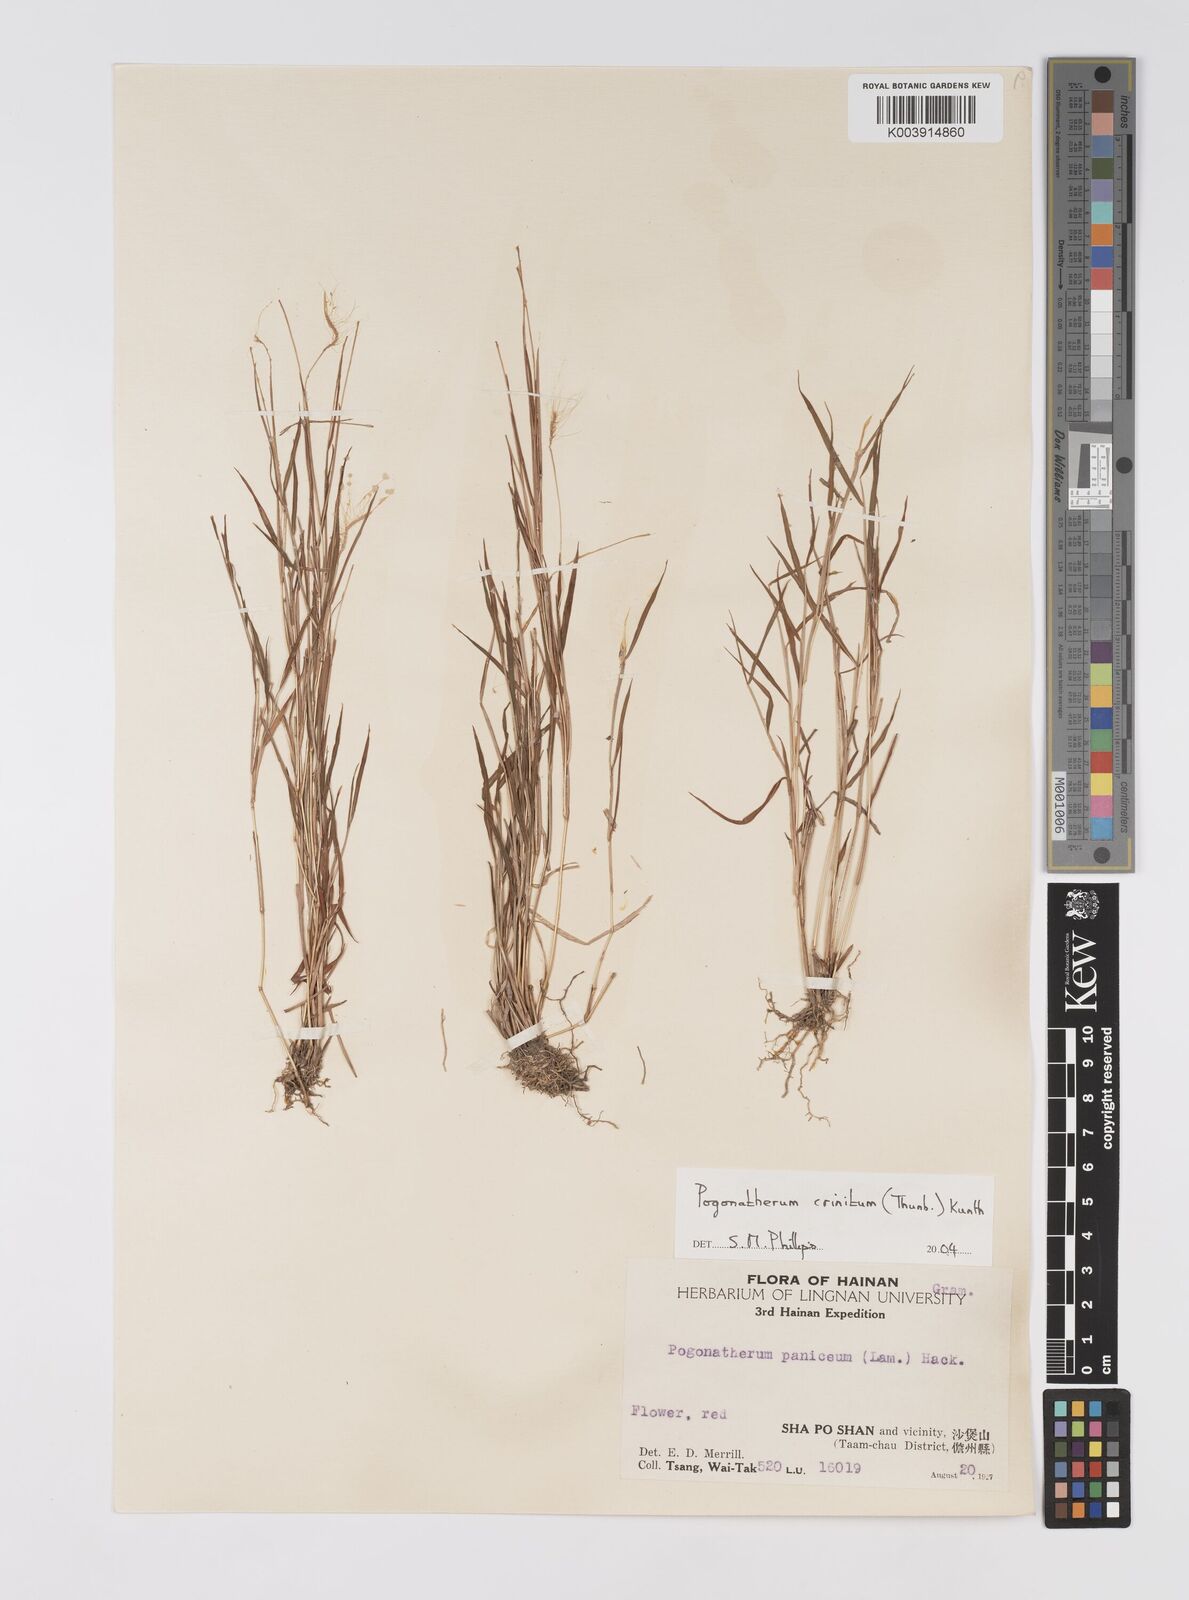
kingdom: Plantae
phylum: Tracheophyta
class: Liliopsida
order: Poales
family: Poaceae
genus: Pogonatherum
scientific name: Pogonatherum crinitum
